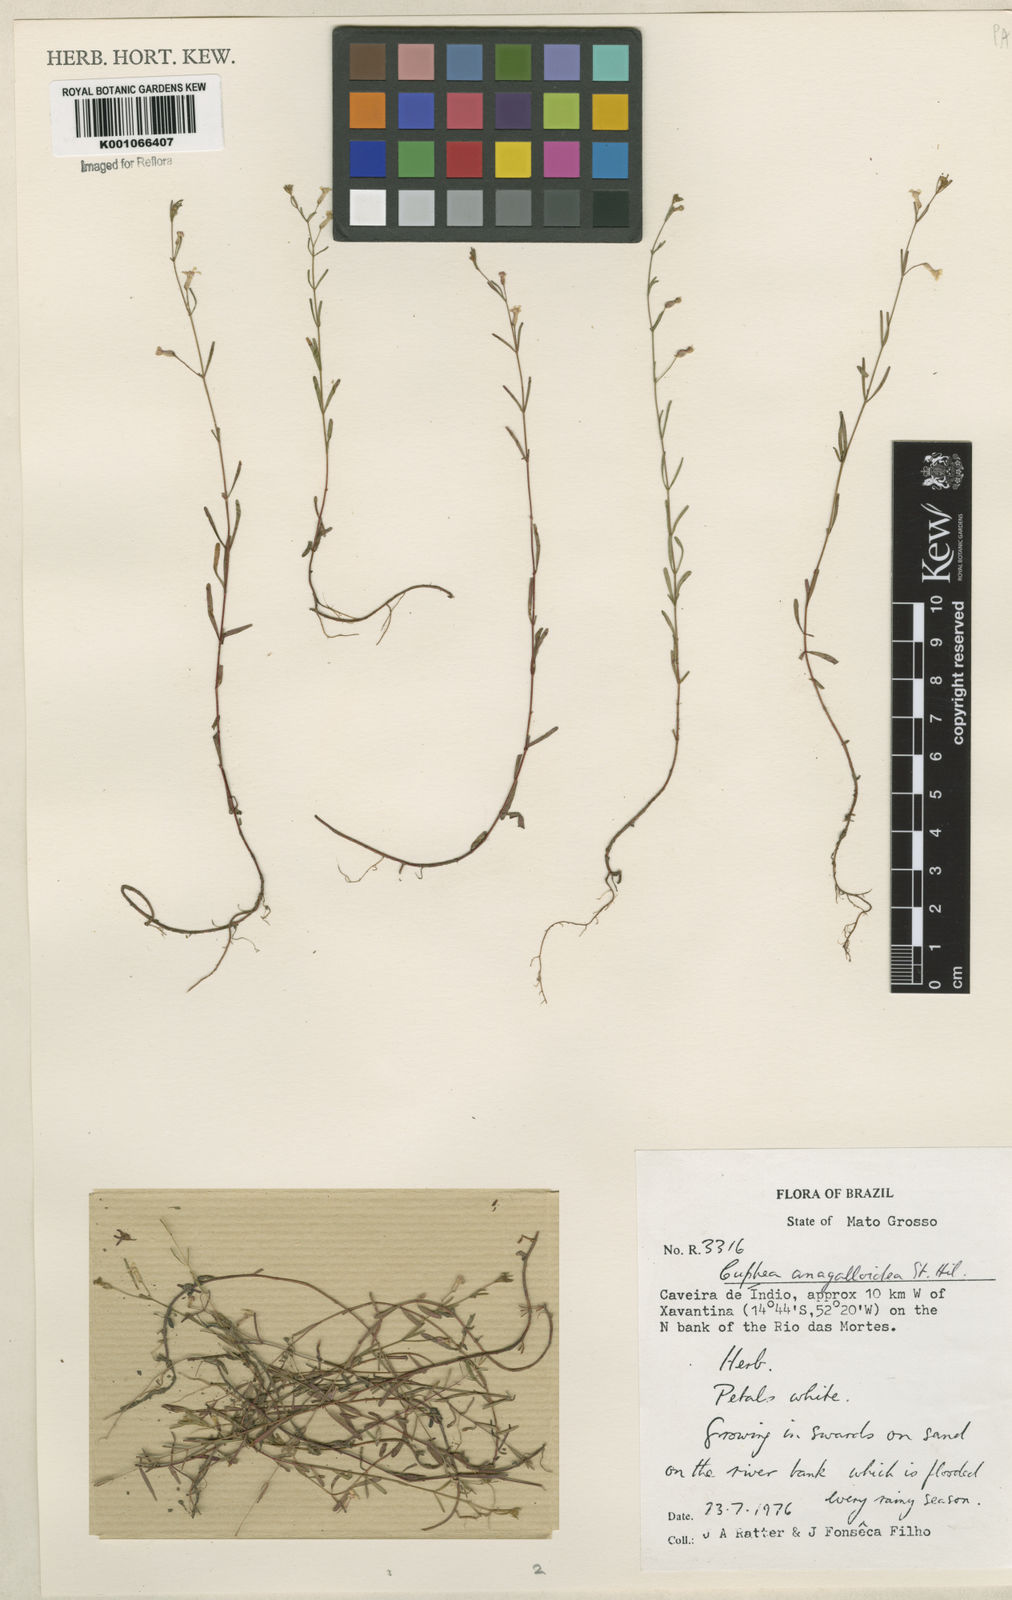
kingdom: Plantae
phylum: Tracheophyta
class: Magnoliopsida
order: Myrtales
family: Lythraceae
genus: Cuphea
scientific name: Cuphea anagalloidea
